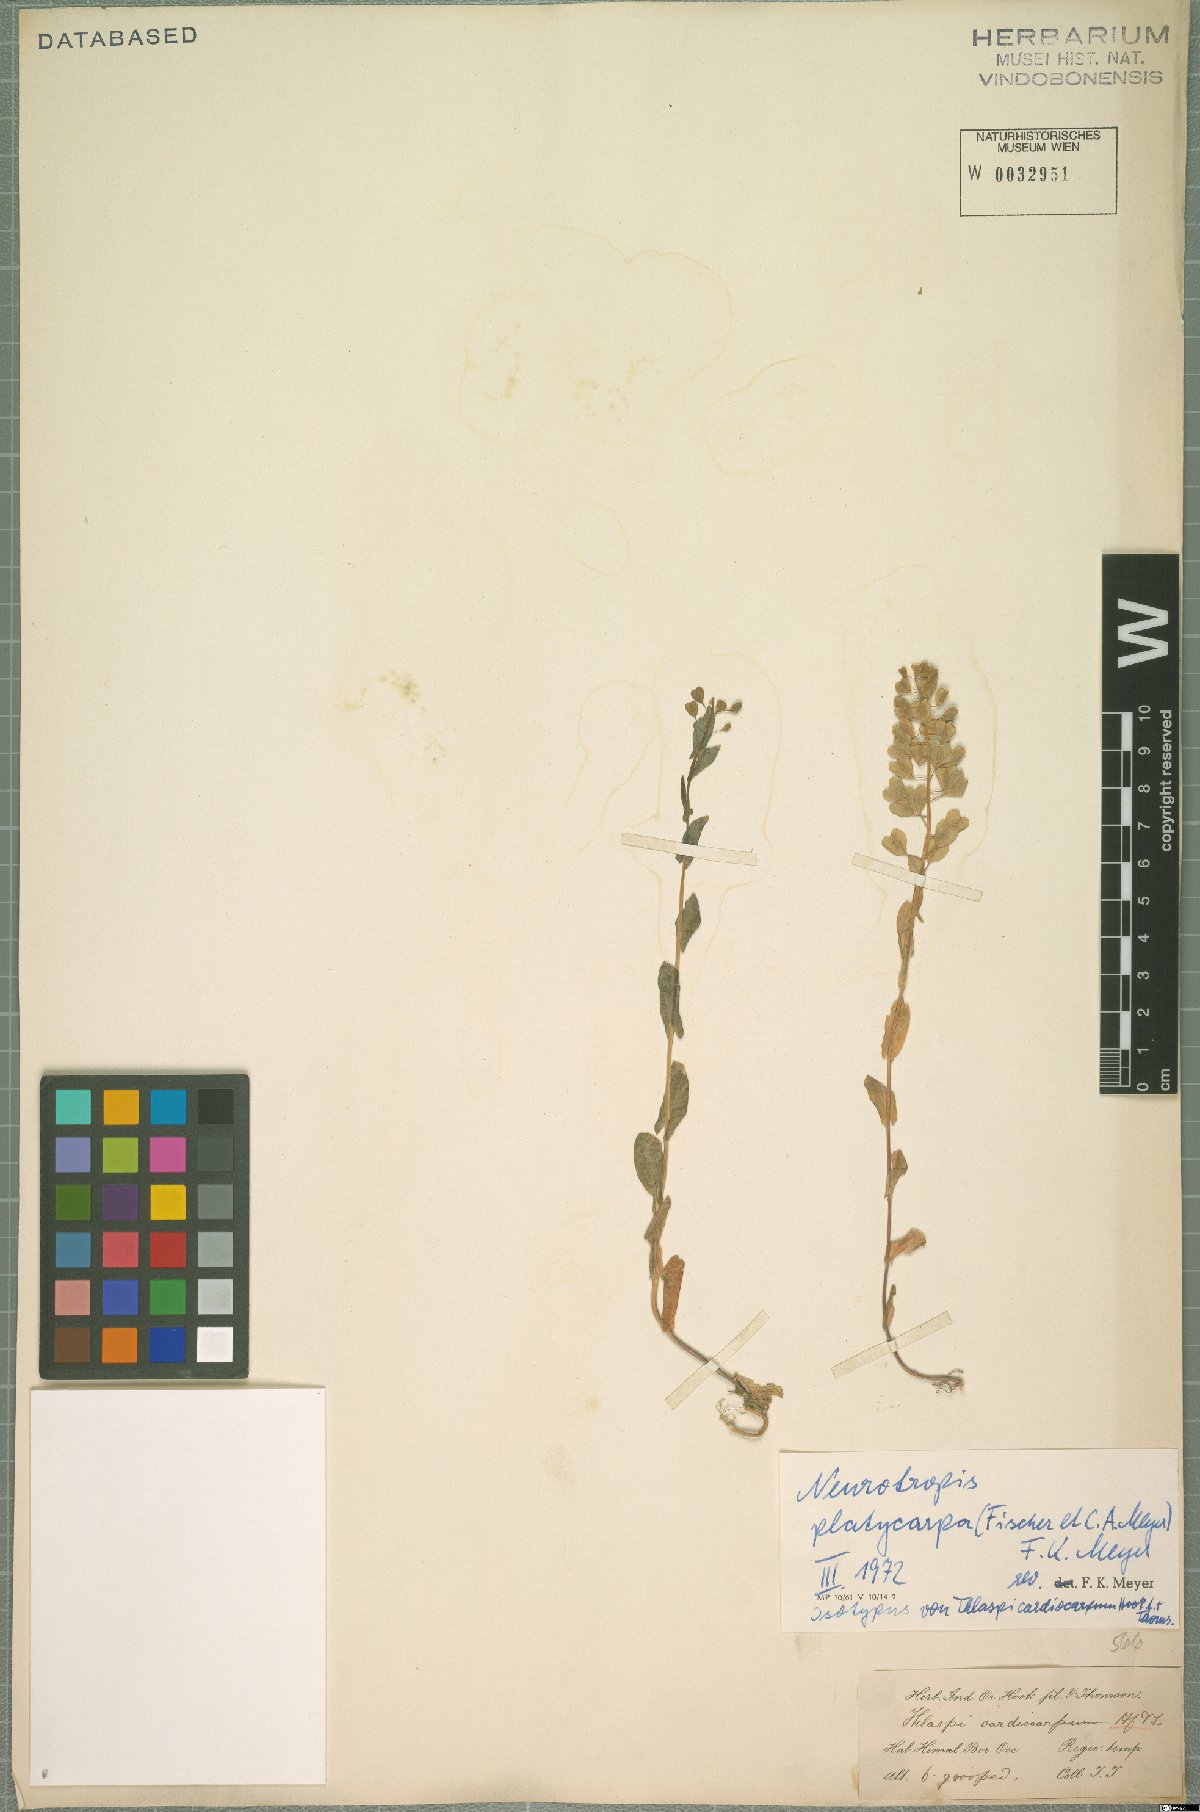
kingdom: Plantae
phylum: Tracheophyta
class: Magnoliopsida
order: Brassicales
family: Brassicaceae
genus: Noccaea
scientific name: Noccaea platycarpa
